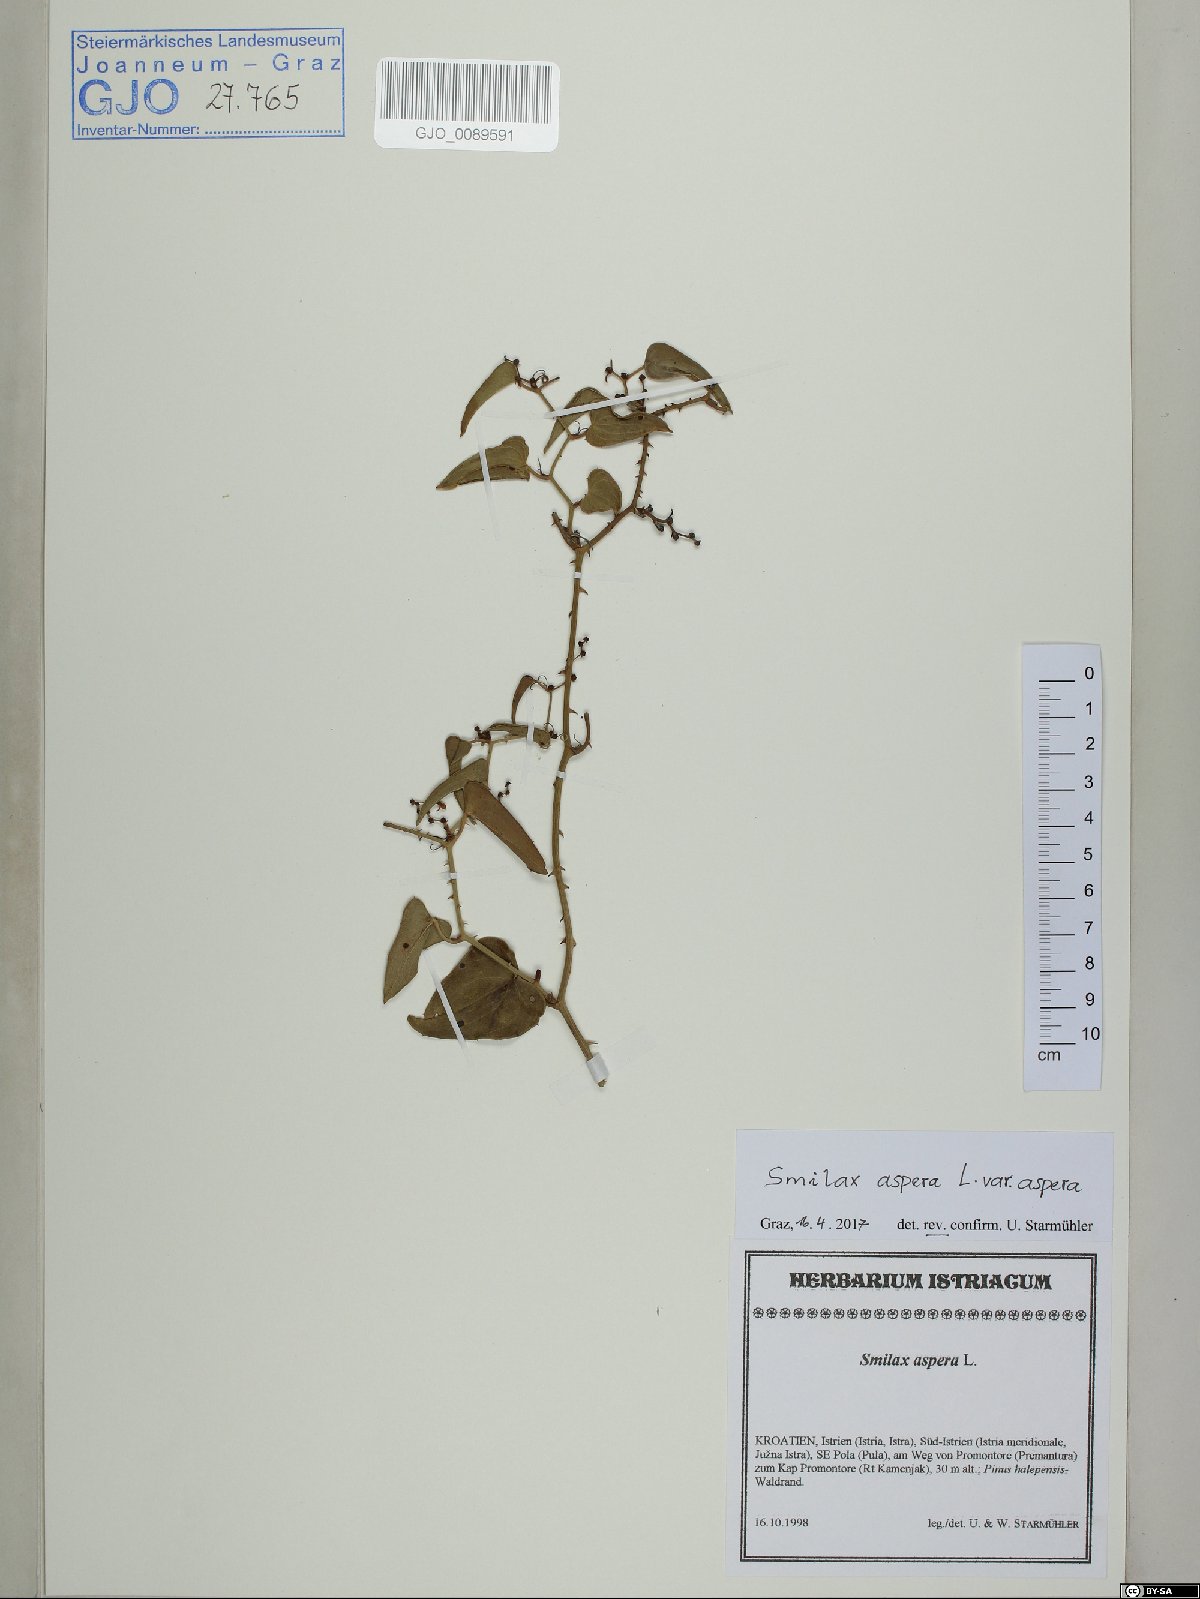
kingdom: Plantae
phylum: Tracheophyta
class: Liliopsida
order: Liliales
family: Smilacaceae
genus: Smilax
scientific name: Smilax aspera
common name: Common smilax
